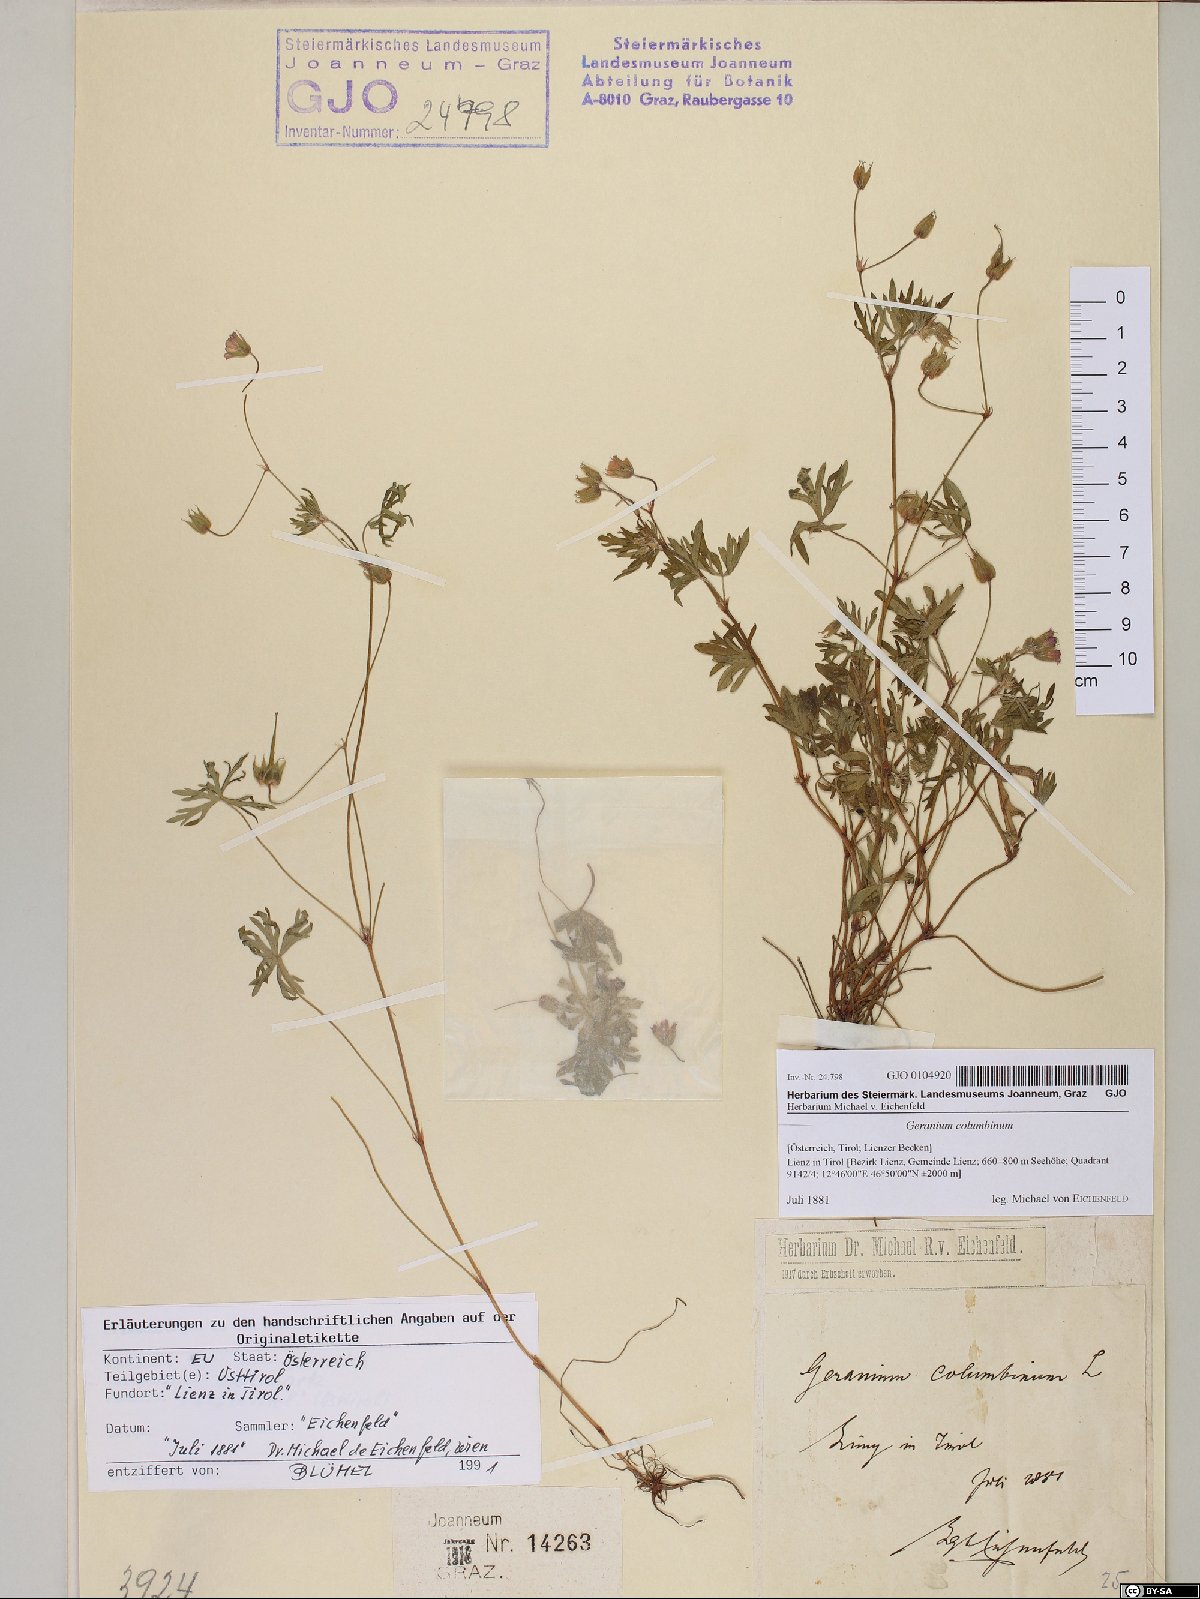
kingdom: Plantae
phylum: Tracheophyta
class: Magnoliopsida
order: Geraniales
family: Geraniaceae
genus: Geranium
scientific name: Geranium columbinum
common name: Long-stalked crane's-bill
